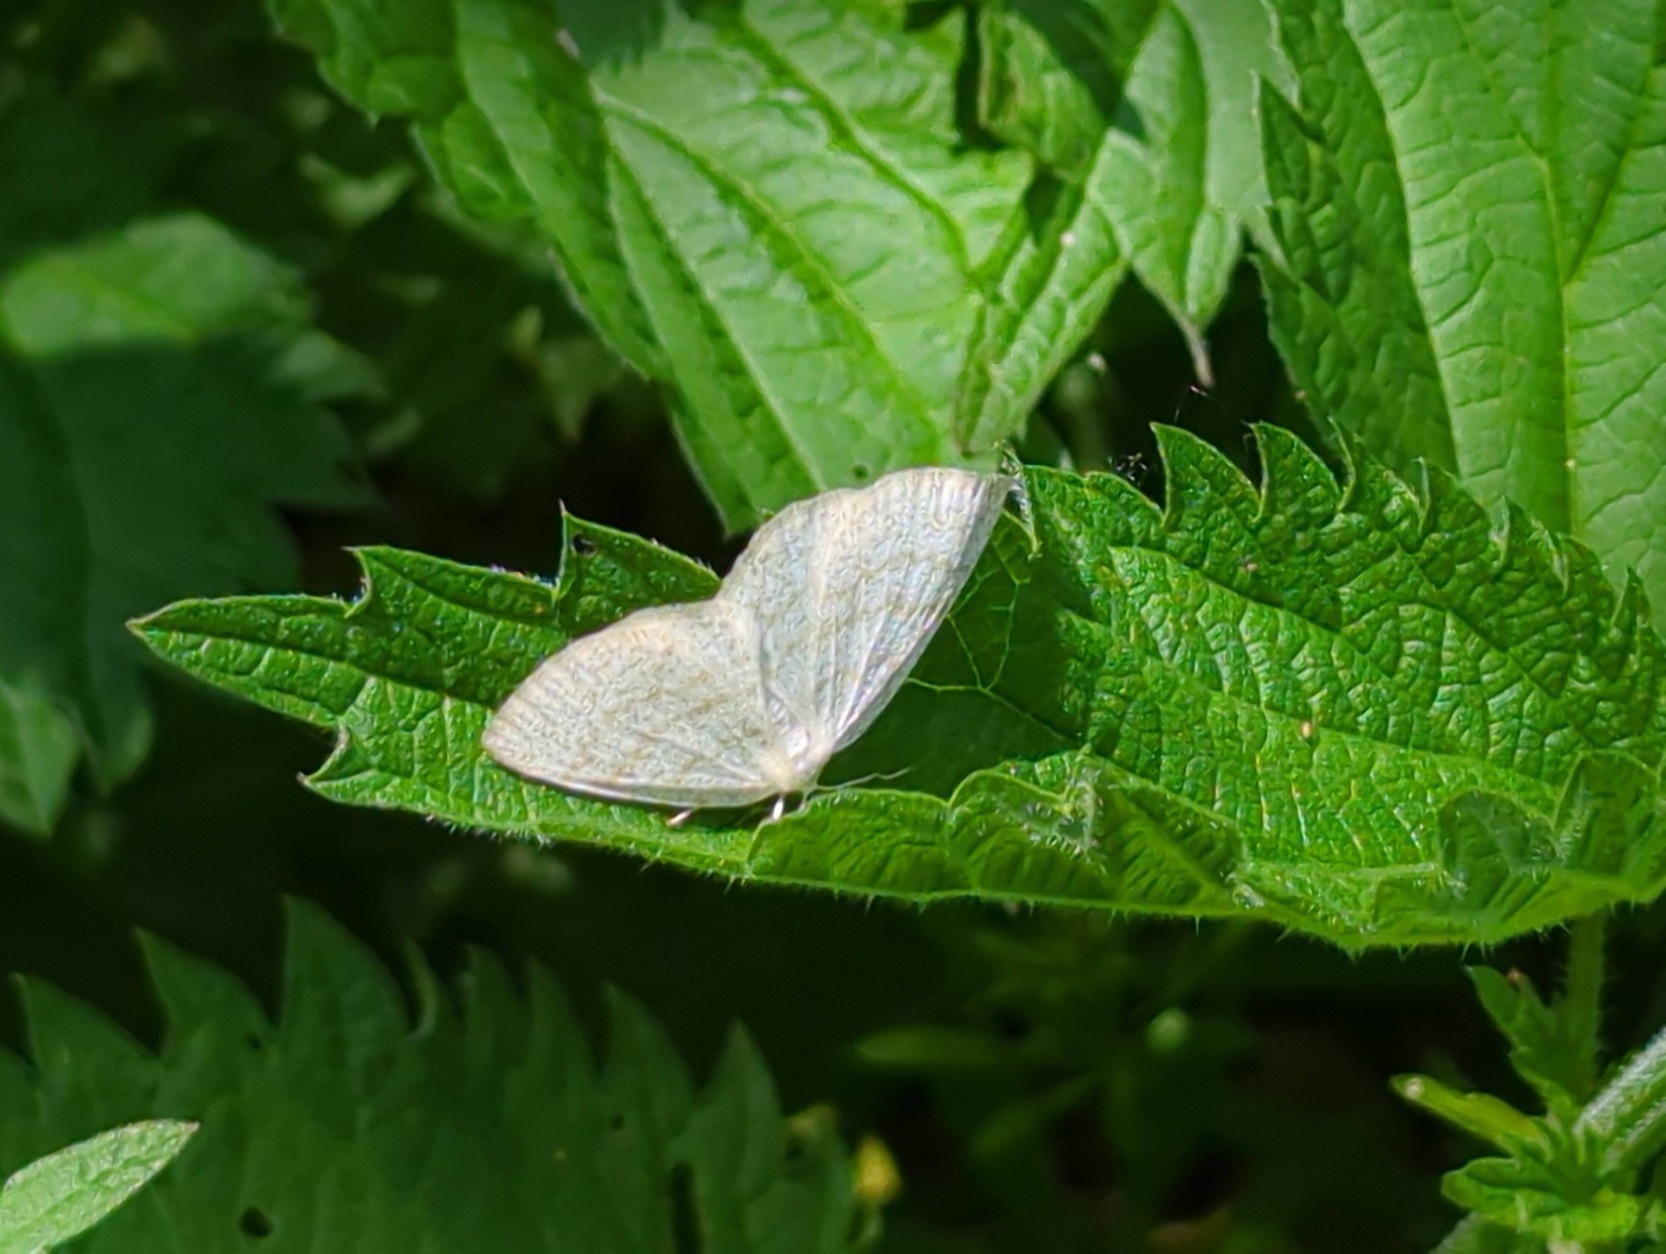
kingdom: Animalia
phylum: Arthropoda
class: Insecta
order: Lepidoptera
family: Geometridae
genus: Cabera
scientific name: Cabera exanthemata
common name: Gulhvid stregmåler
